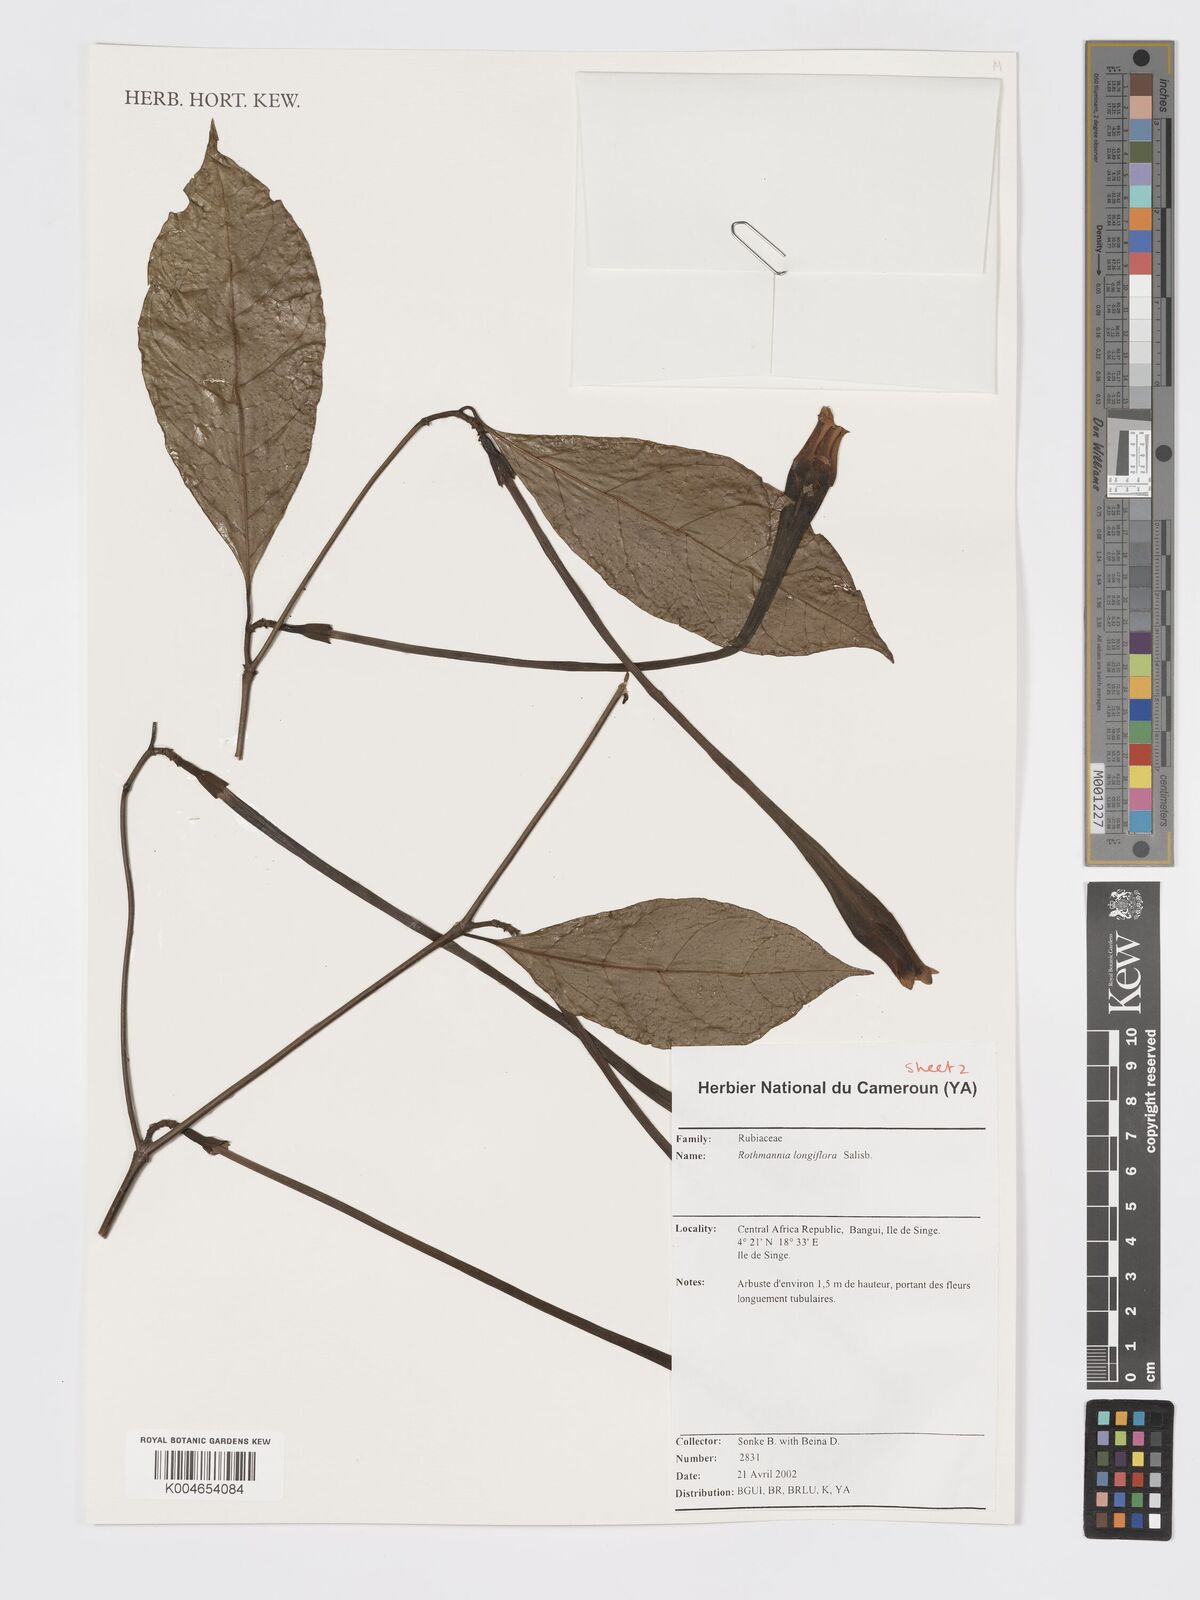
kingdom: Plantae
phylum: Tracheophyta
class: Magnoliopsida
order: Gentianales
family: Rubiaceae
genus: Rothmannia
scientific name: Rothmannia longiflora
